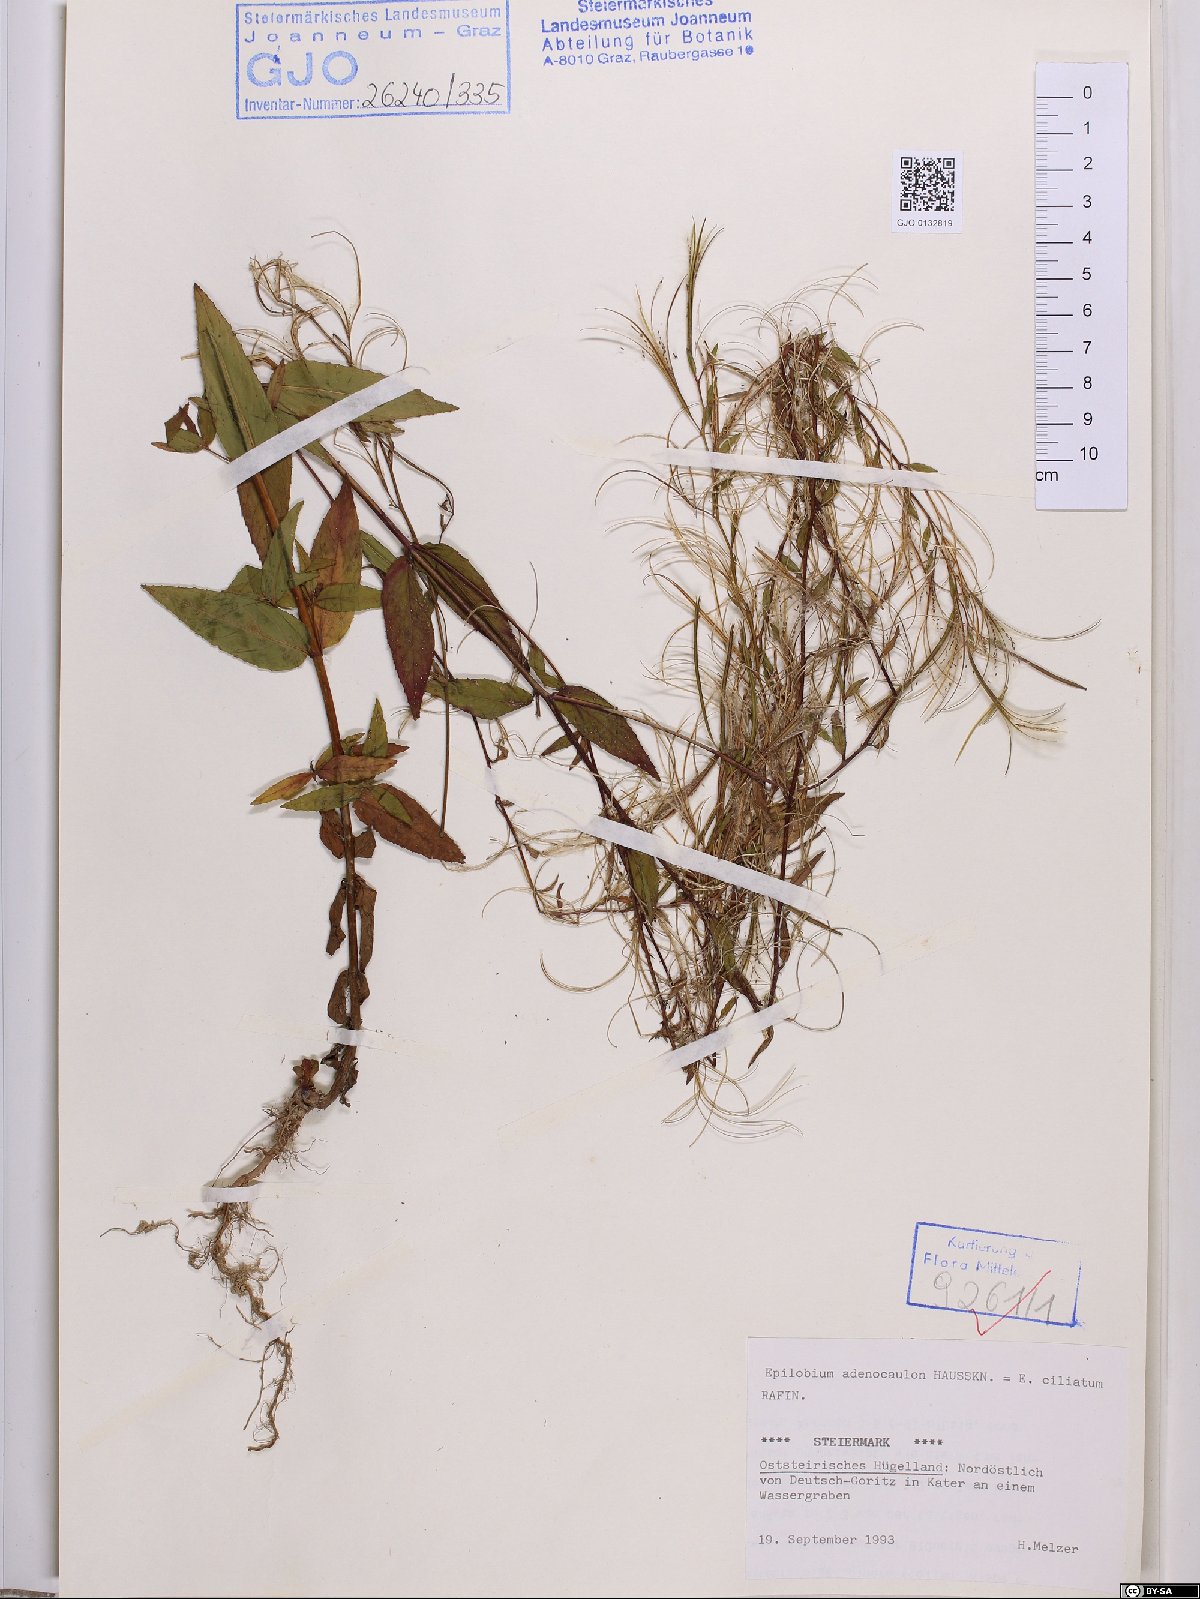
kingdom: Plantae
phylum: Tracheophyta
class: Magnoliopsida
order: Myrtales
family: Onagraceae
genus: Epilobium
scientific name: Epilobium ciliatum
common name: American willowherb
